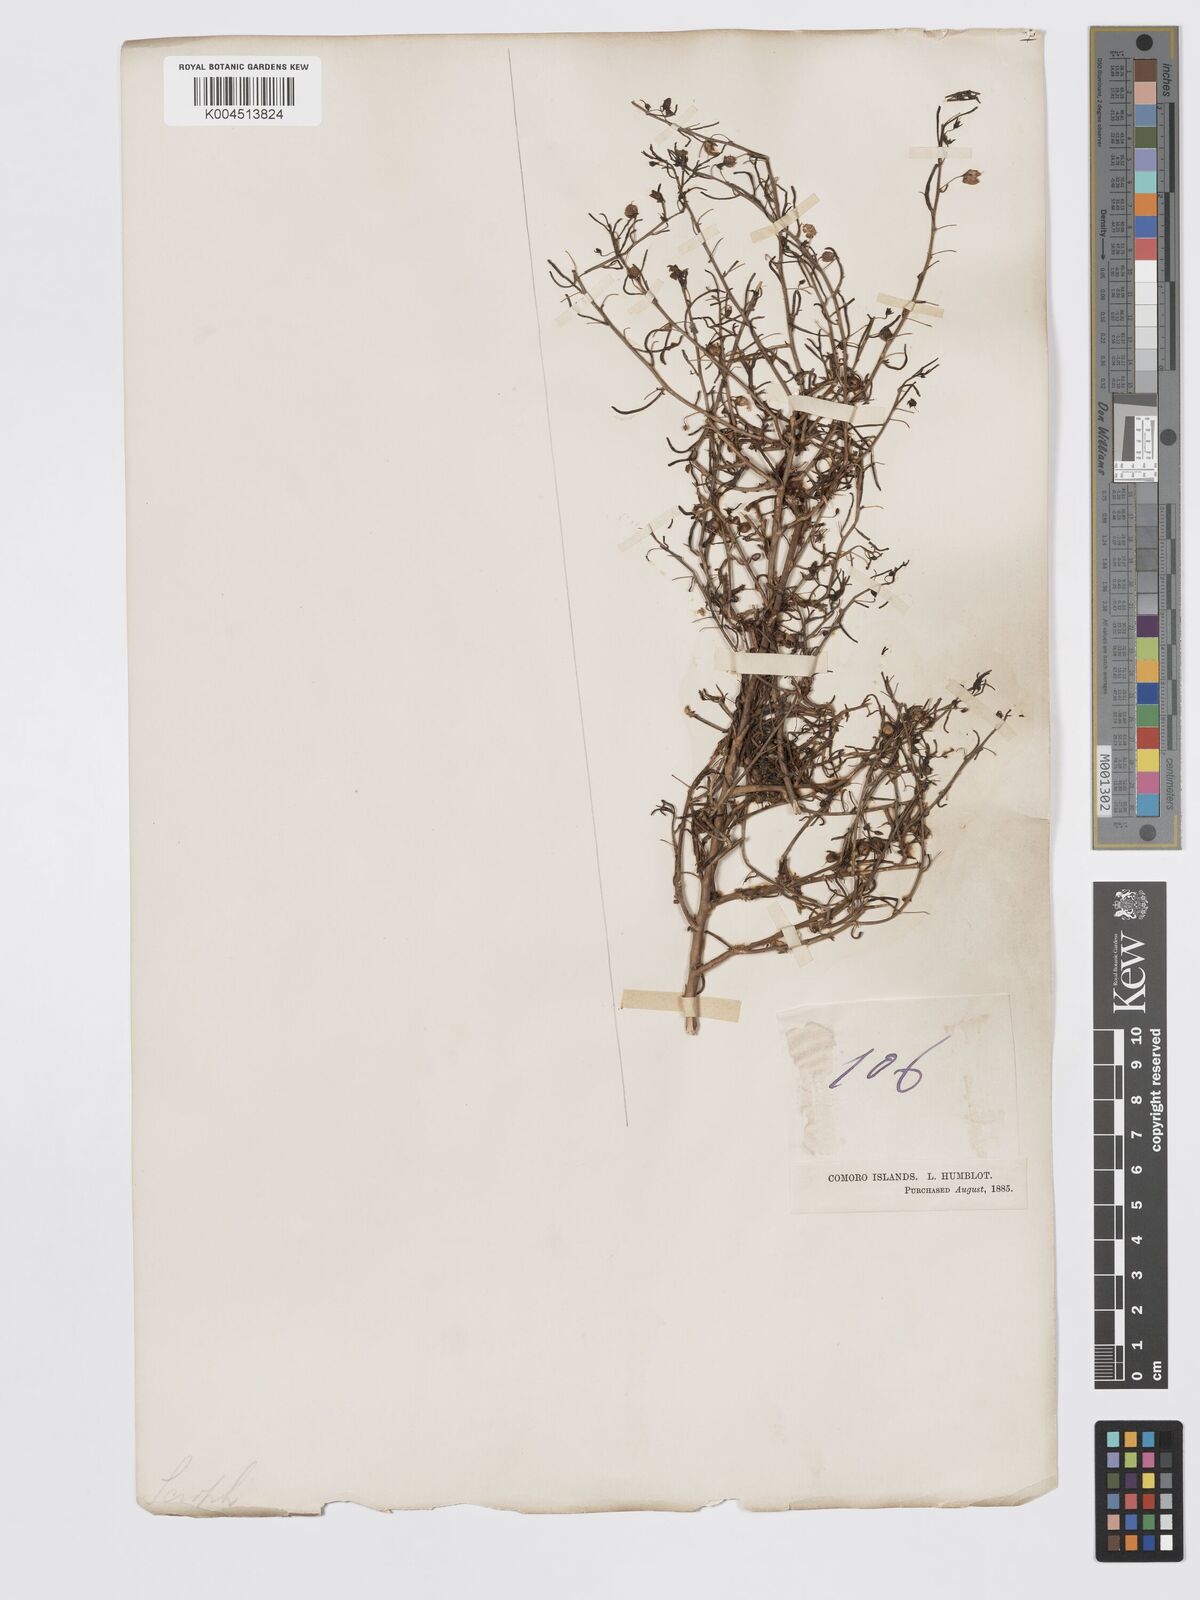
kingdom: Plantae
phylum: Tracheophyta
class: Magnoliopsida
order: Lamiales
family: Plantaginaceae
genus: Schweinfurthia
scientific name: Schweinfurthia pedicellata
